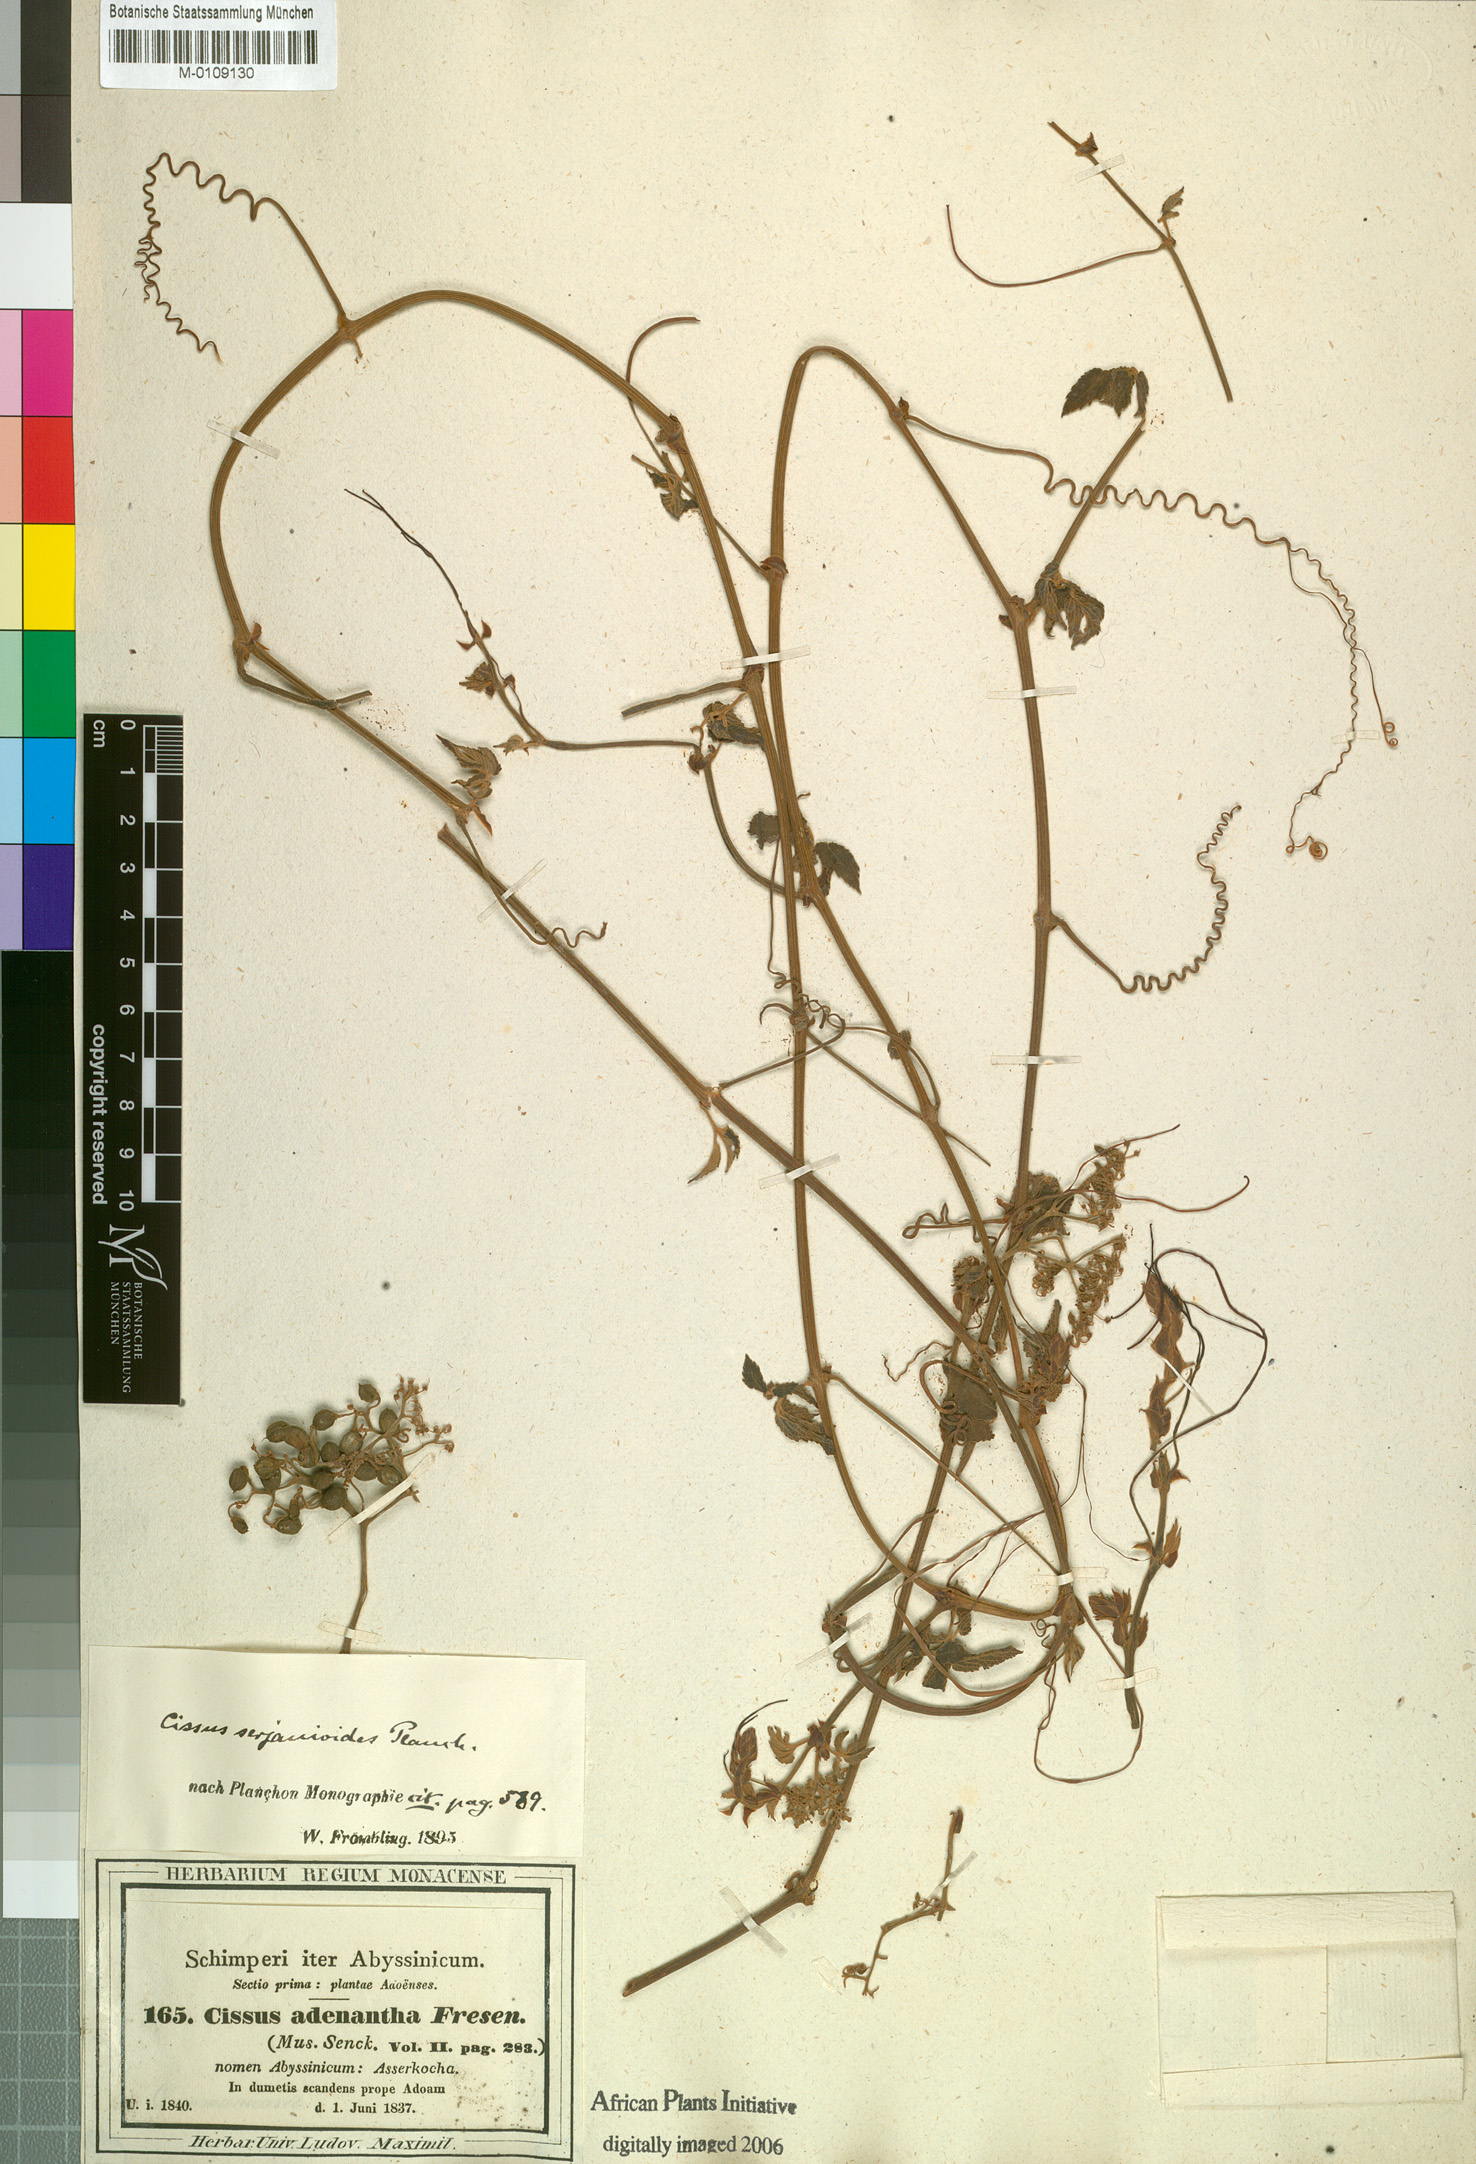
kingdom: Plantae
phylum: Tracheophyta
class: Magnoliopsida
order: Vitales
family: Vitaceae
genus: Cyphostemma
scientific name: Cyphostemma adenocaule
